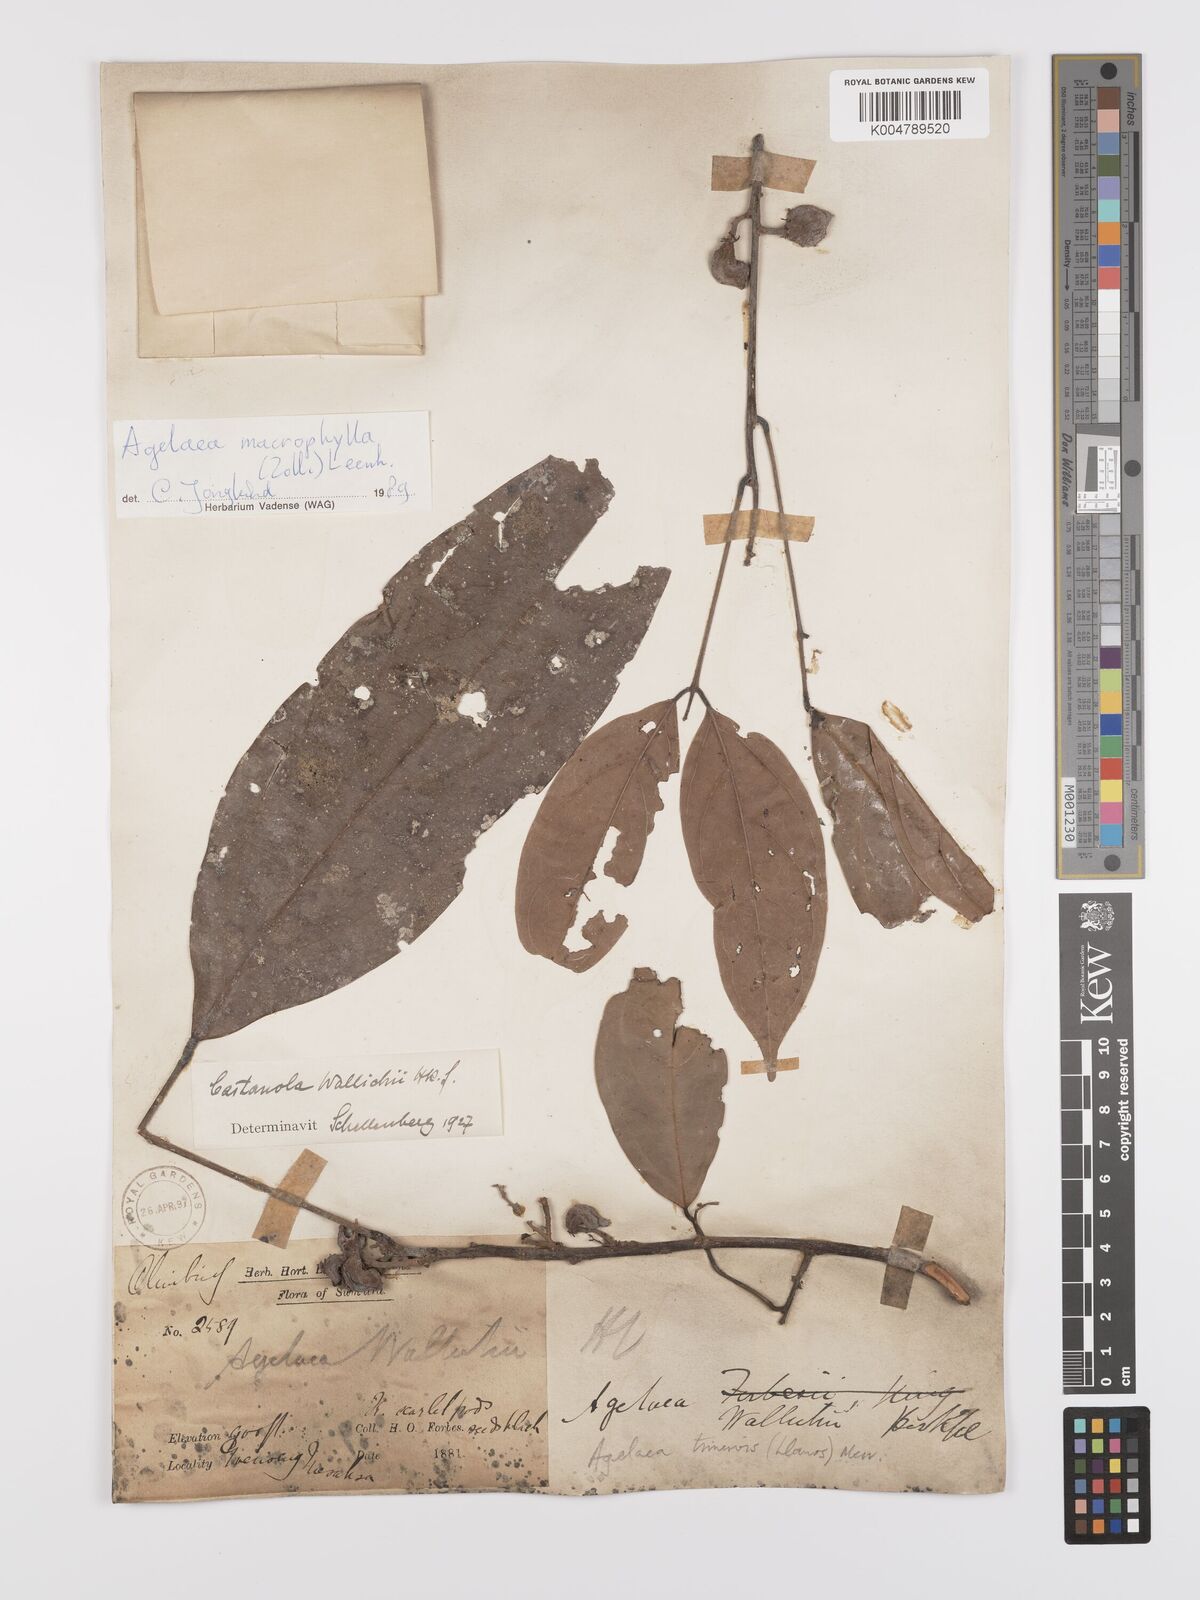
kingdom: Plantae
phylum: Tracheophyta
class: Magnoliopsida
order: Oxalidales
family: Connaraceae
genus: Agelaea
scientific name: Agelaea trinervis
